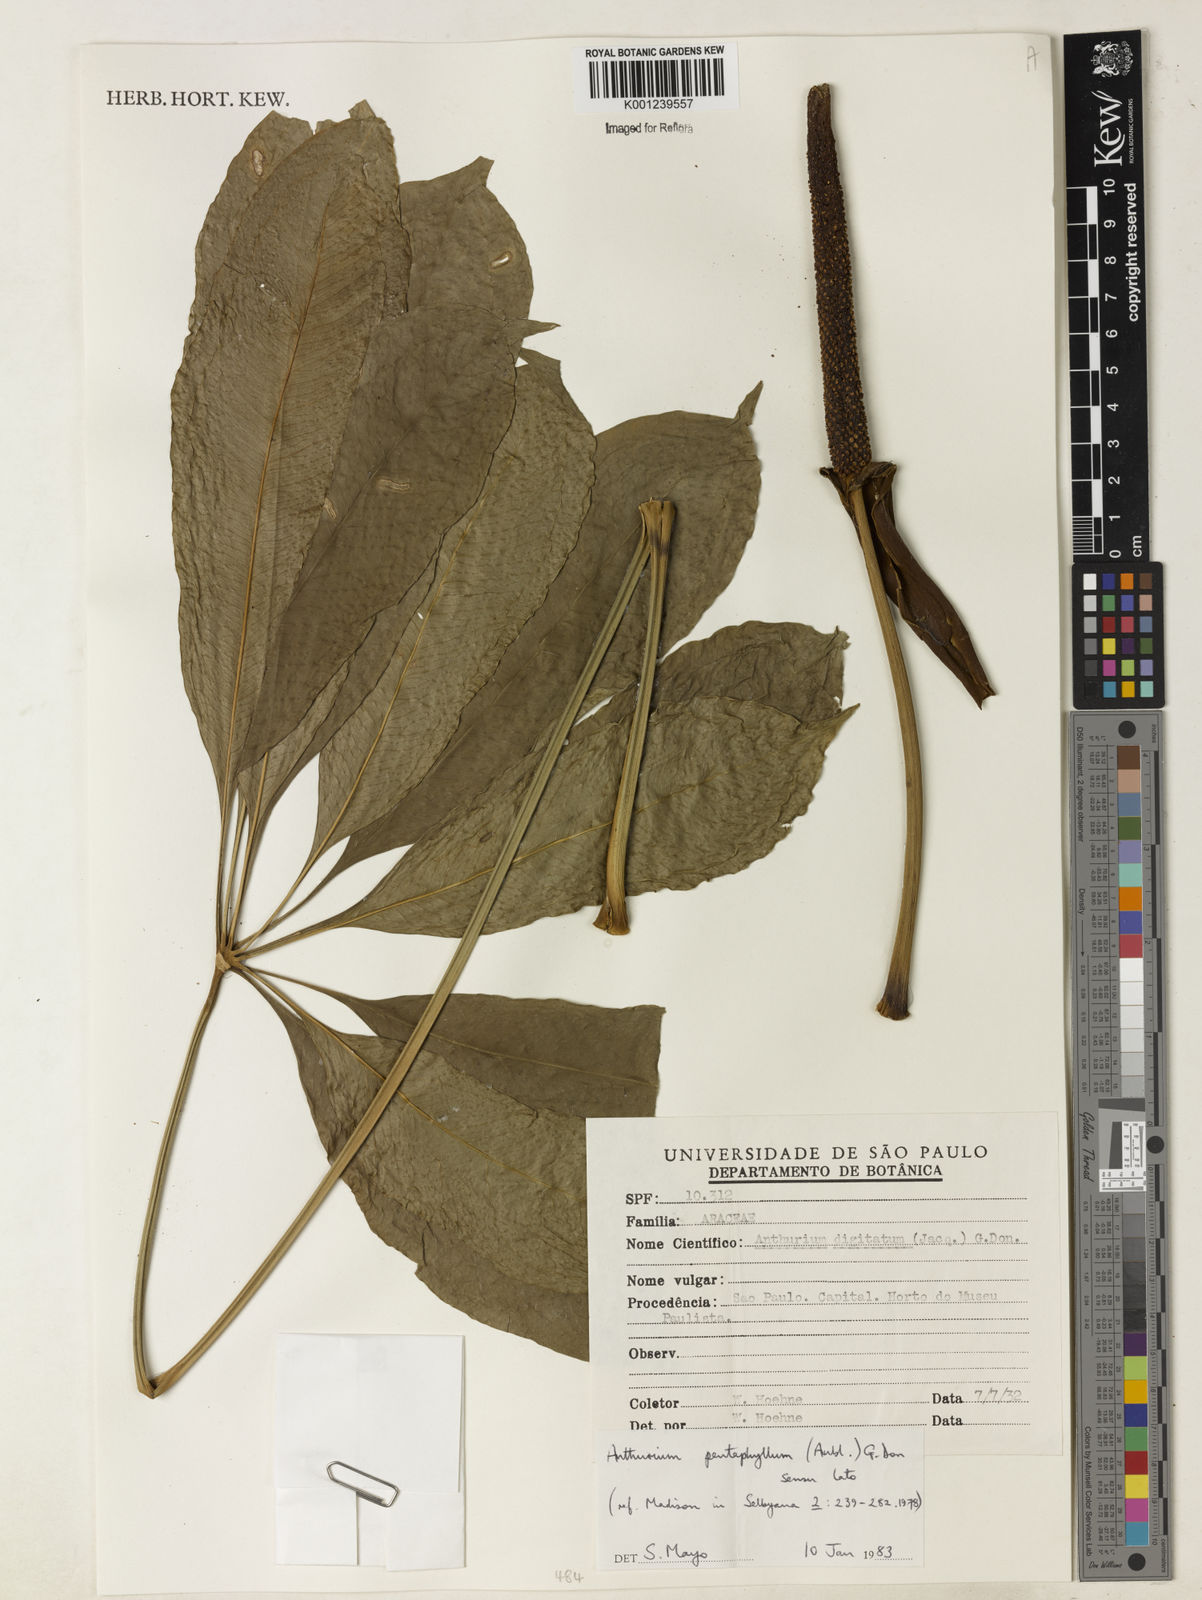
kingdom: Plantae
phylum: Tracheophyta
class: Liliopsida
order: Alismatales
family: Araceae
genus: Anthurium
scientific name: Anthurium pentaphyllum
